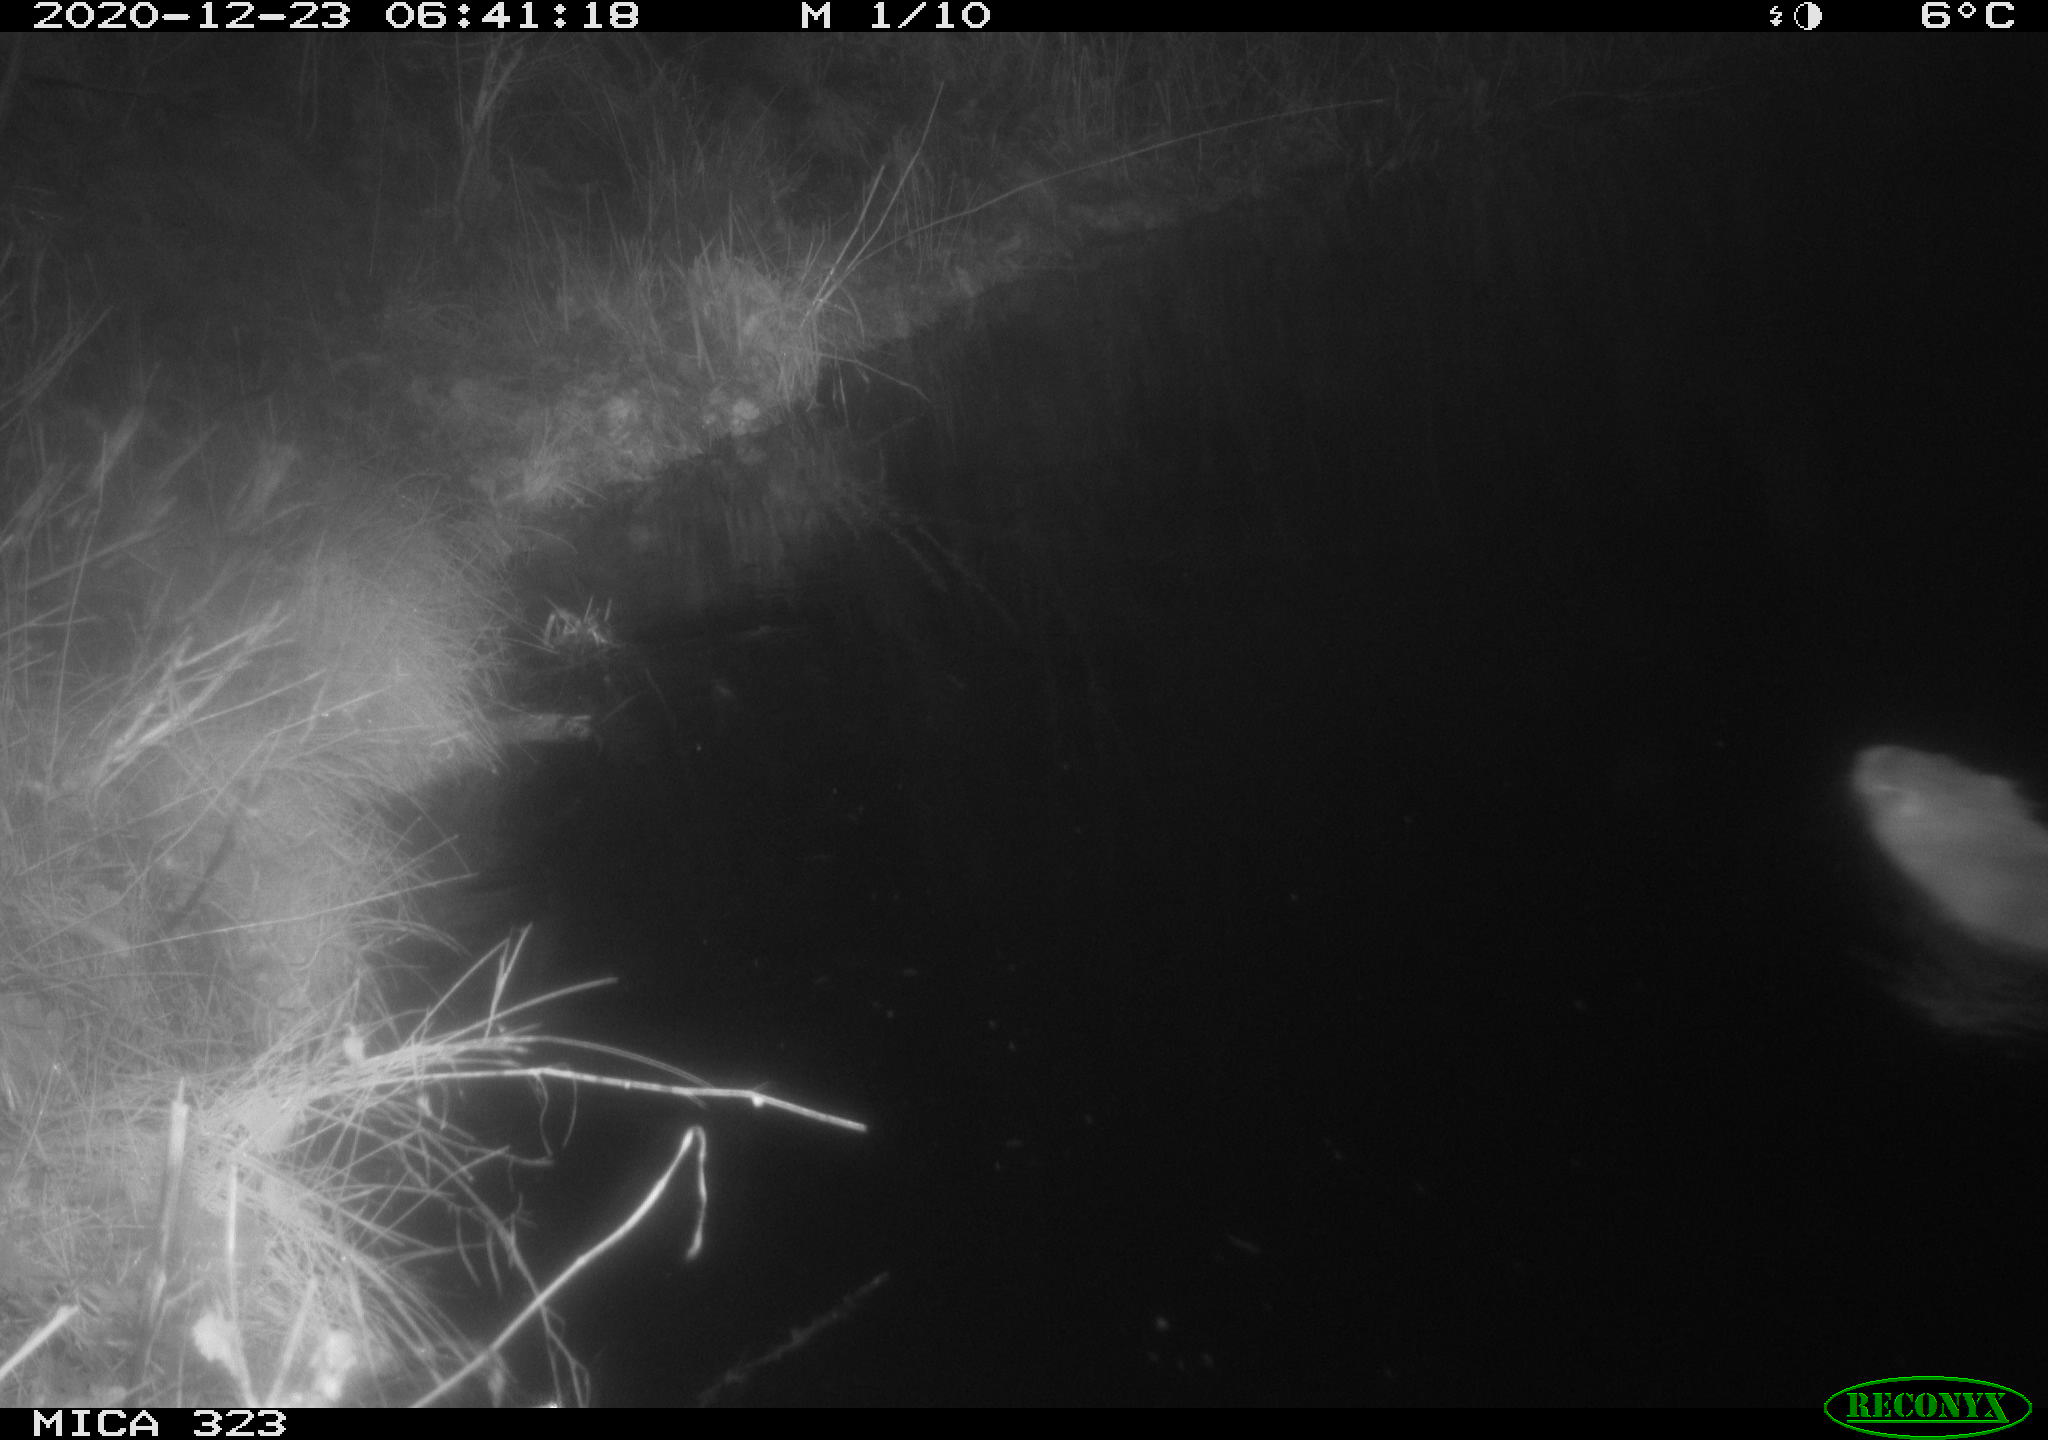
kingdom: Animalia
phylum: Chordata
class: Mammalia
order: Rodentia
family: Myocastoridae
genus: Myocastor
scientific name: Myocastor coypus
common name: Coypu
